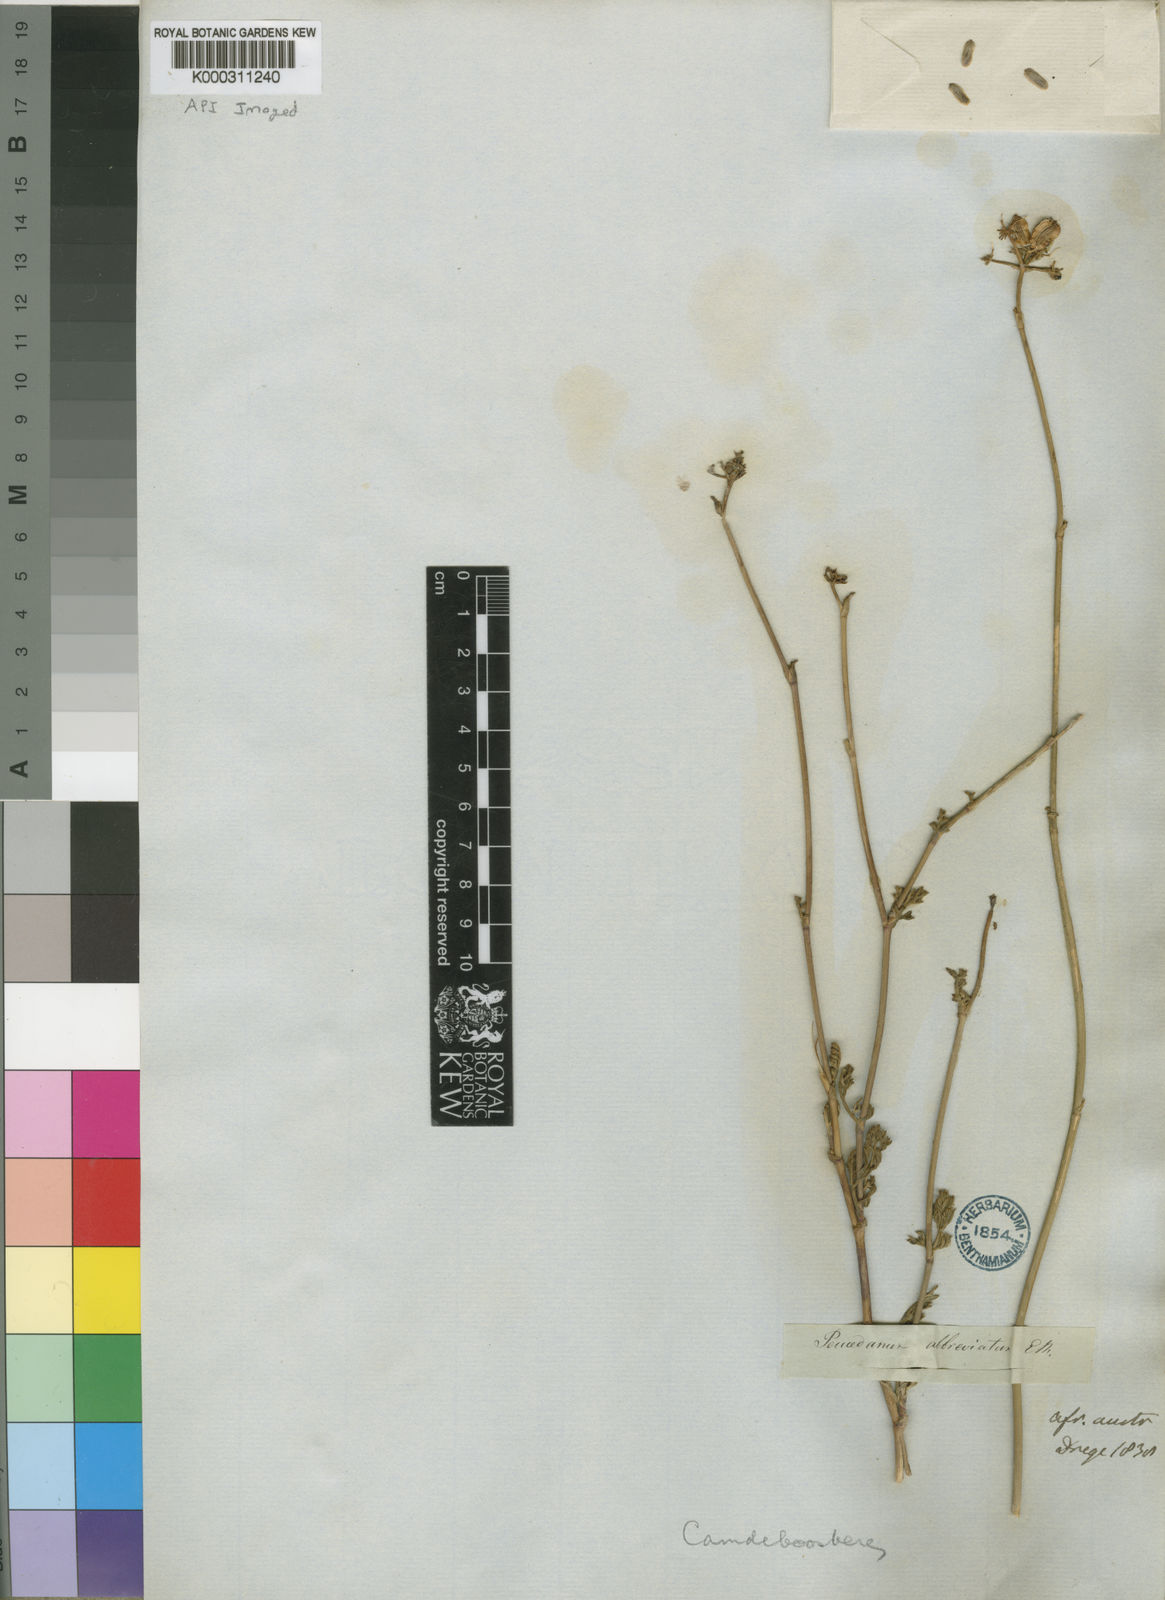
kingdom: Plantae
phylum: Tracheophyta
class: Magnoliopsida
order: Apiales
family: Apiaceae
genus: Notobubon
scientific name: Notobubon laevigatum
